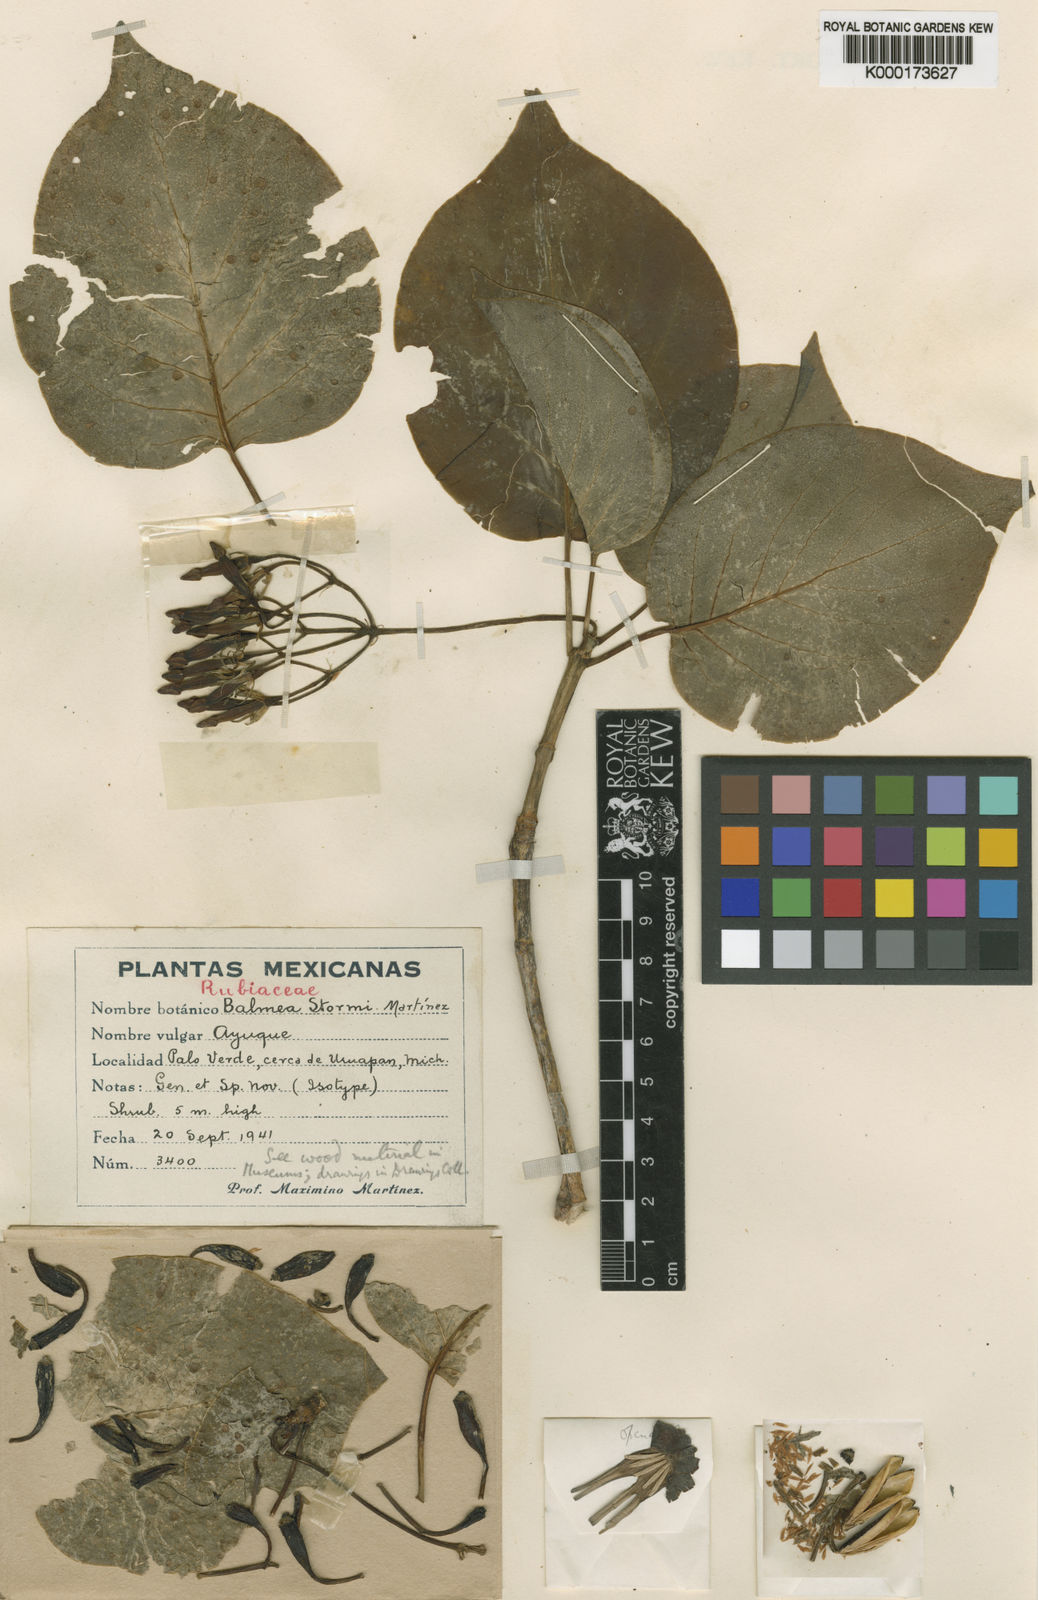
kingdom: Plantae
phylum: Tracheophyta
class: Magnoliopsida
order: Gentianales
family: Rubiaceae
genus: Balmea
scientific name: Balmea
